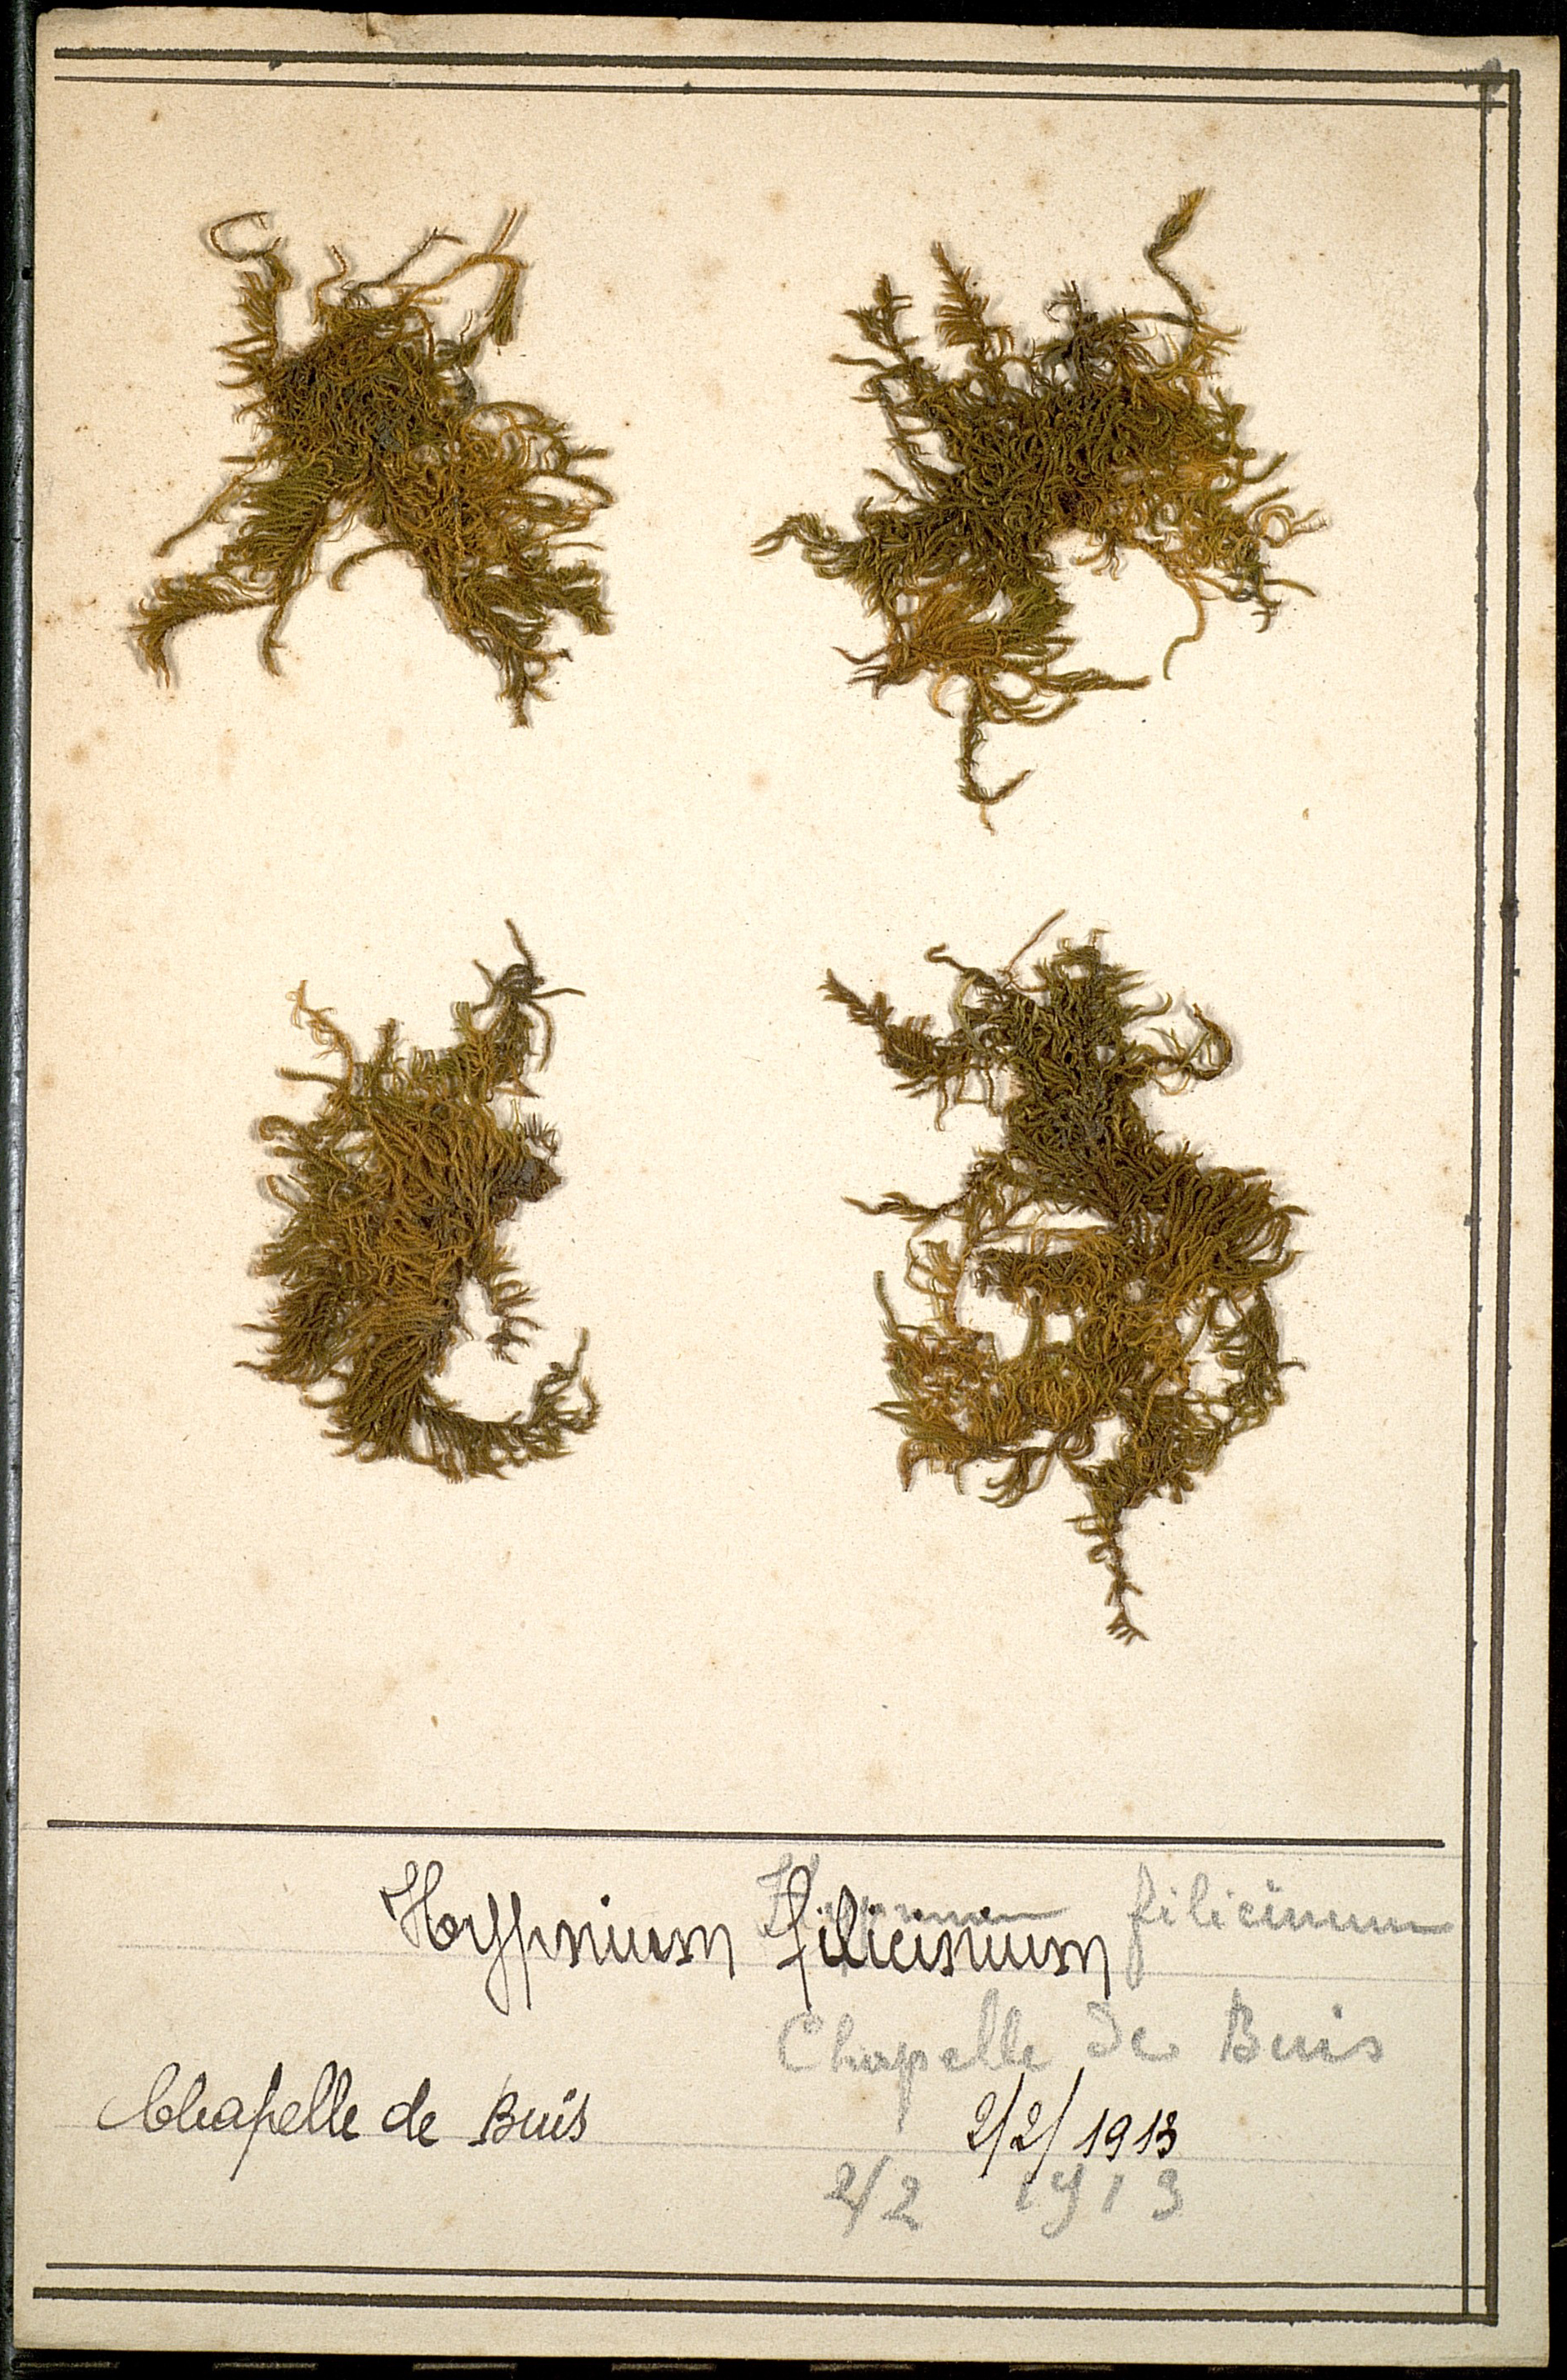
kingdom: Plantae
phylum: Bryophyta
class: Bryopsida
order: Hypnales
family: Amblystegiaceae
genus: Cratoneuron
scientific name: Cratoneuron filicinum
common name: Fern-leaved hook moss
